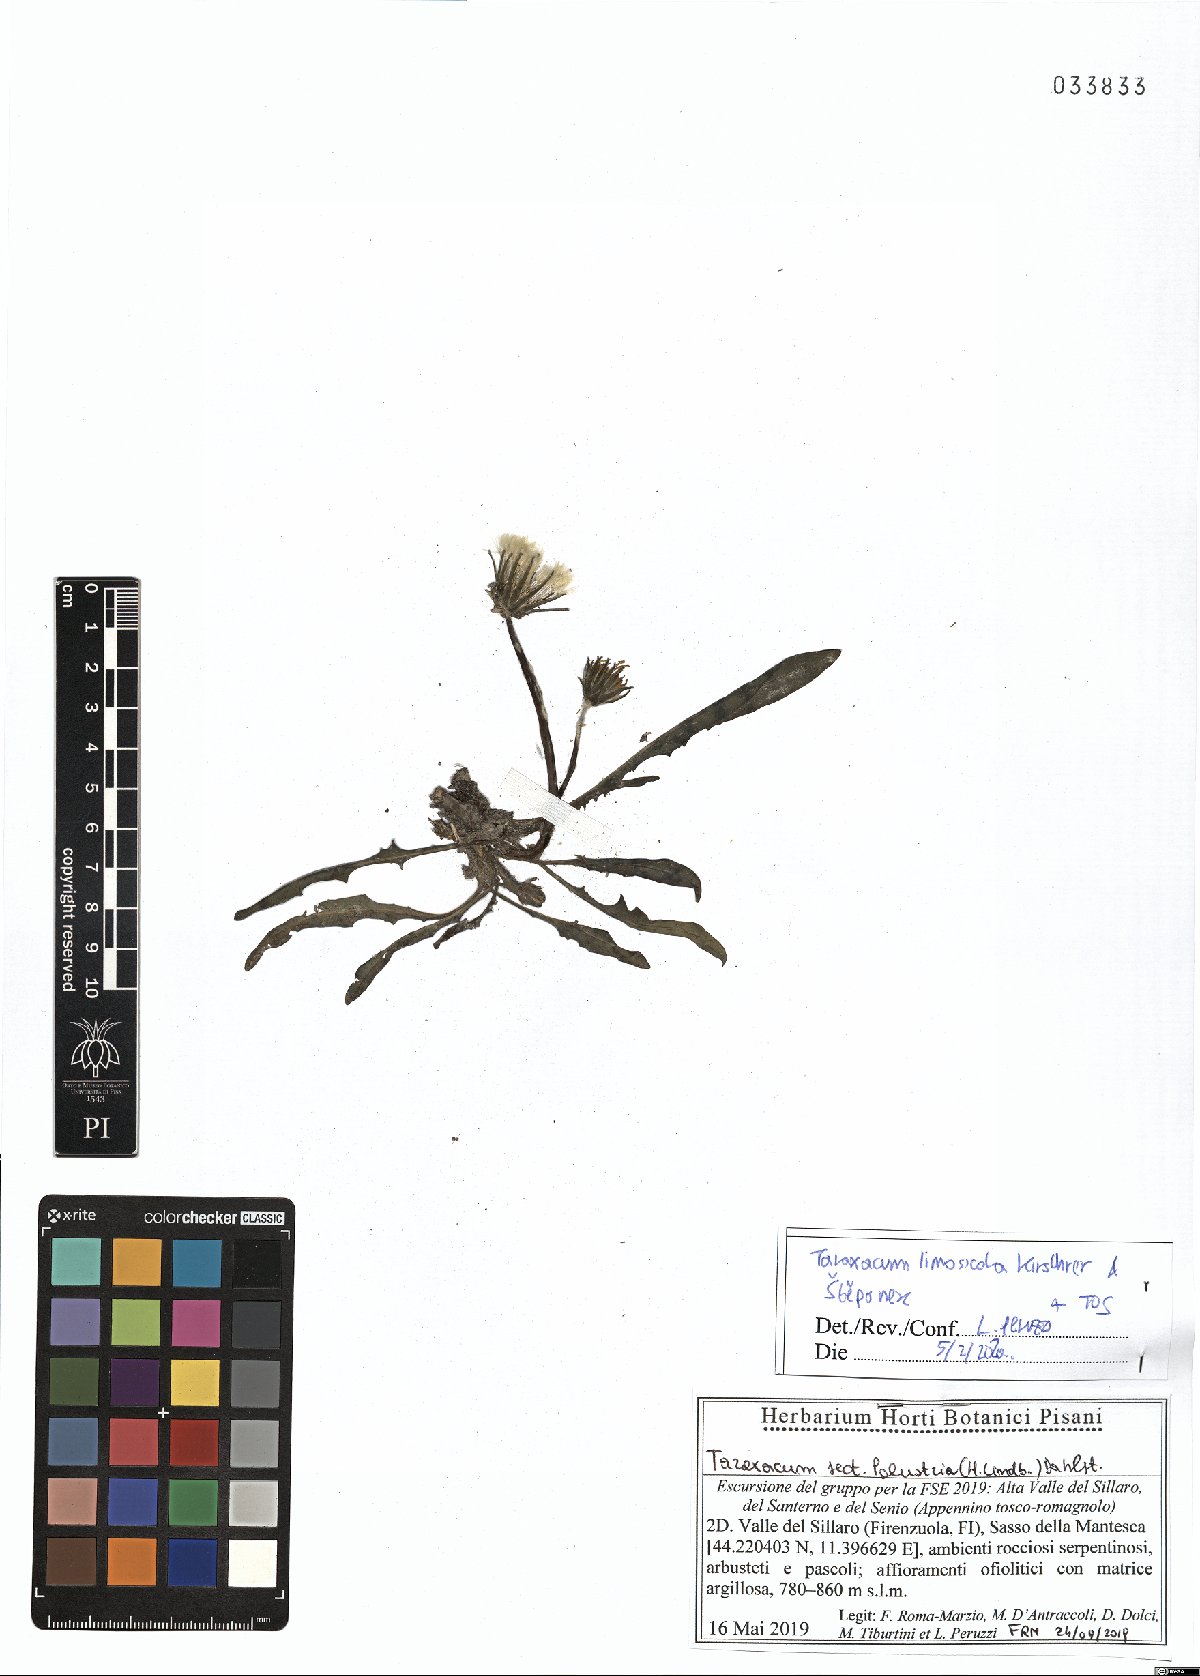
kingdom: Plantae
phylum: Tracheophyta
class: Magnoliopsida
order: Asterales
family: Asteraceae
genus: Taraxacum
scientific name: Taraxacum limosicola
